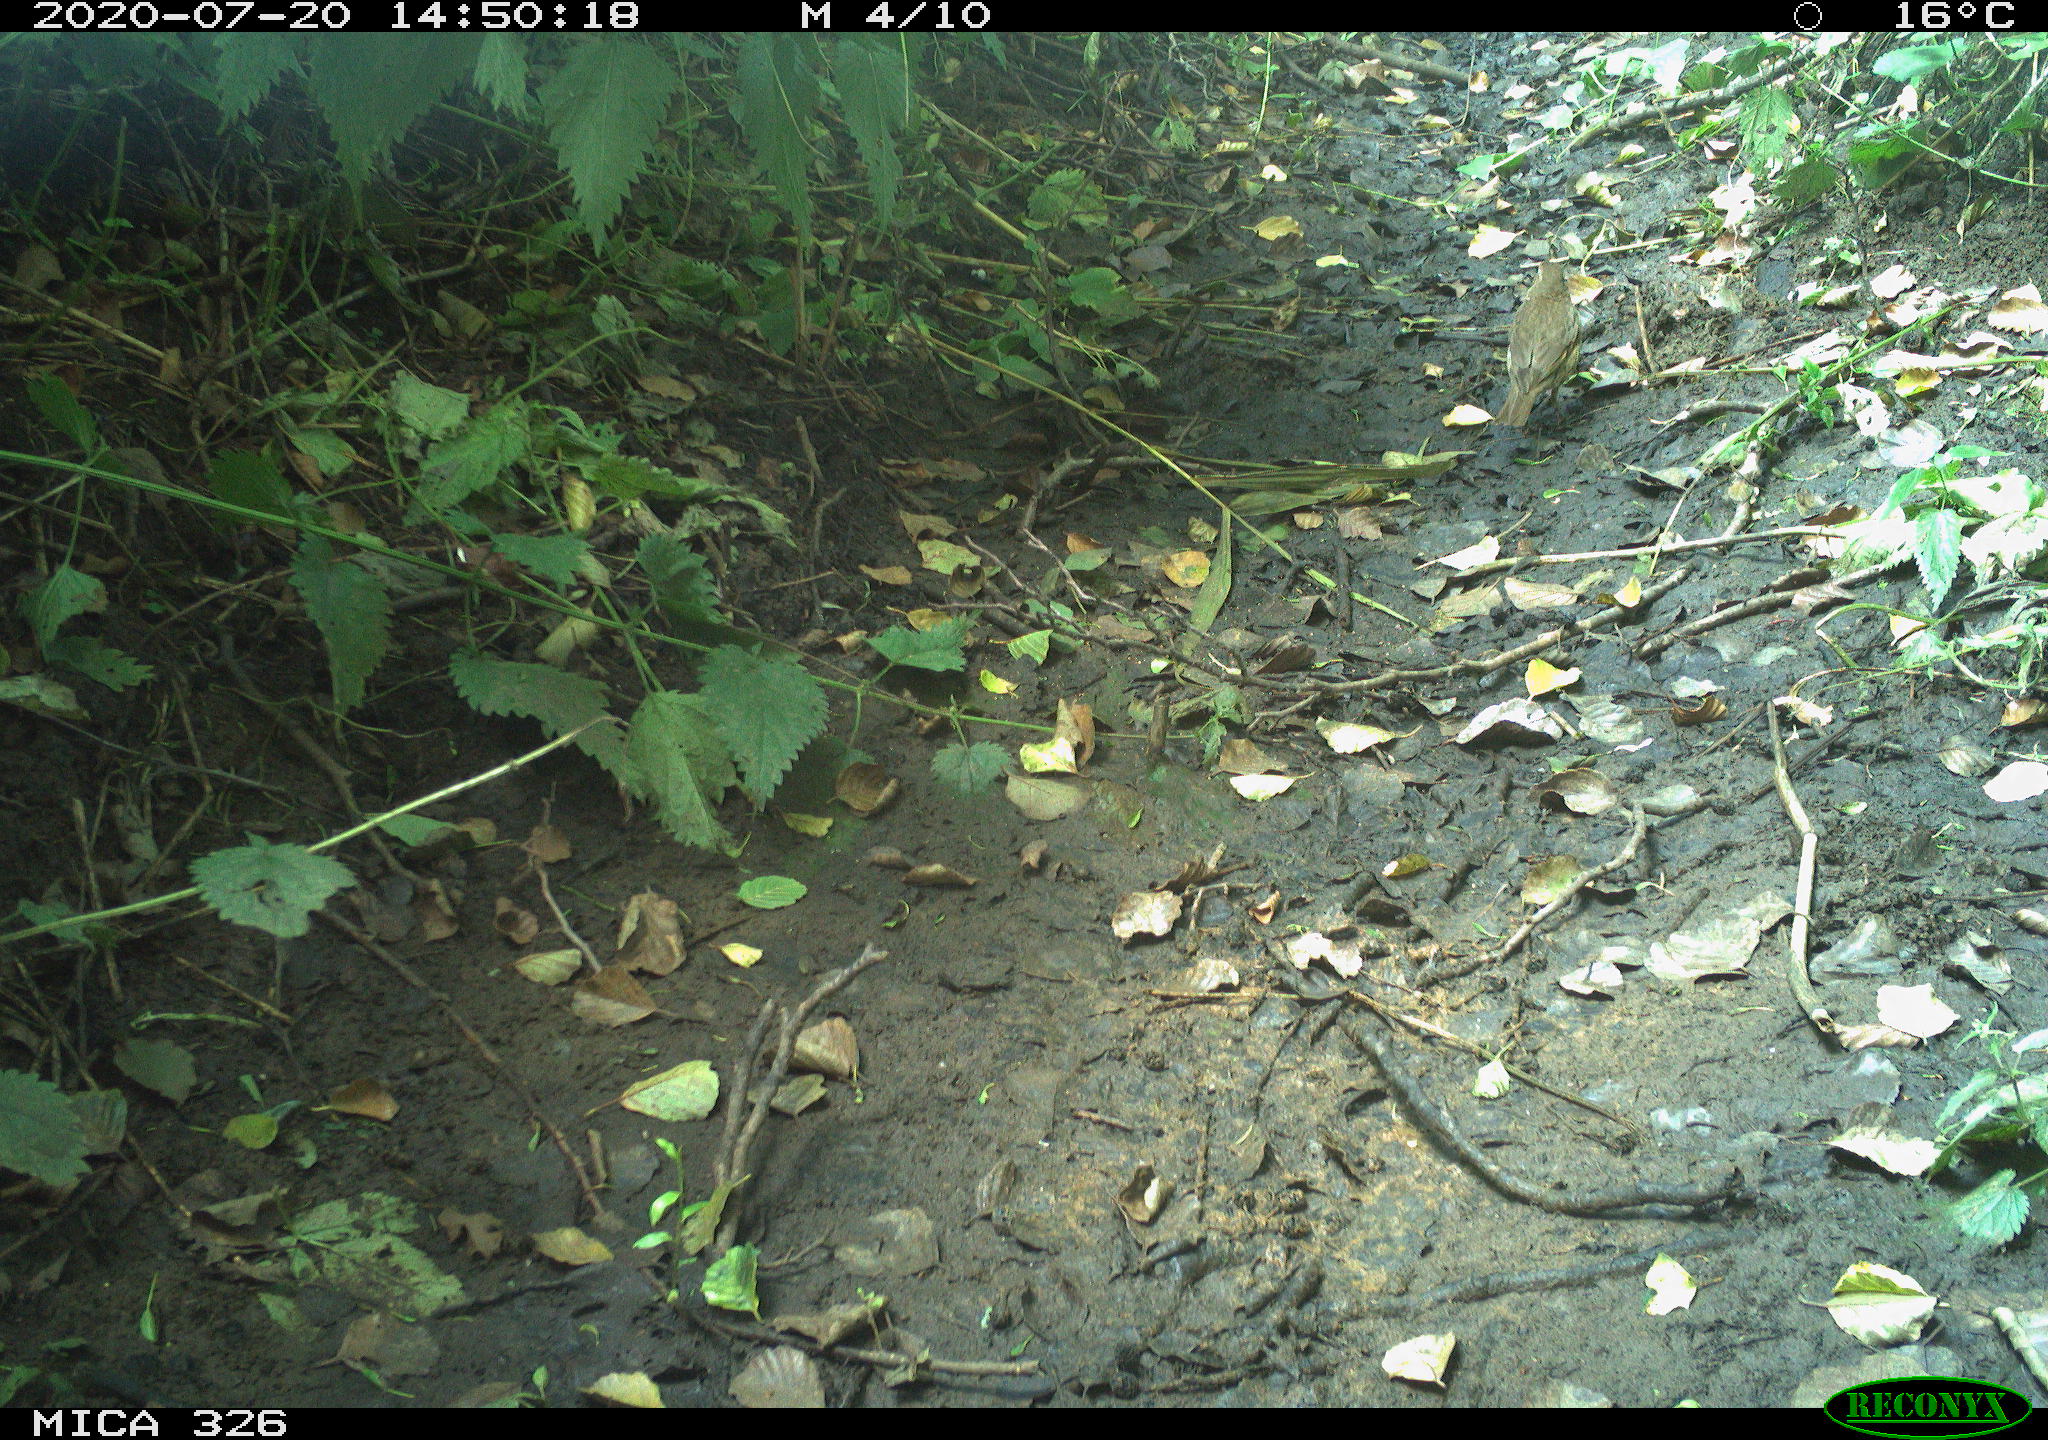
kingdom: Animalia
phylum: Chordata
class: Aves
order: Passeriformes
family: Turdidae
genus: Turdus
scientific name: Turdus philomelos
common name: Song thrush
